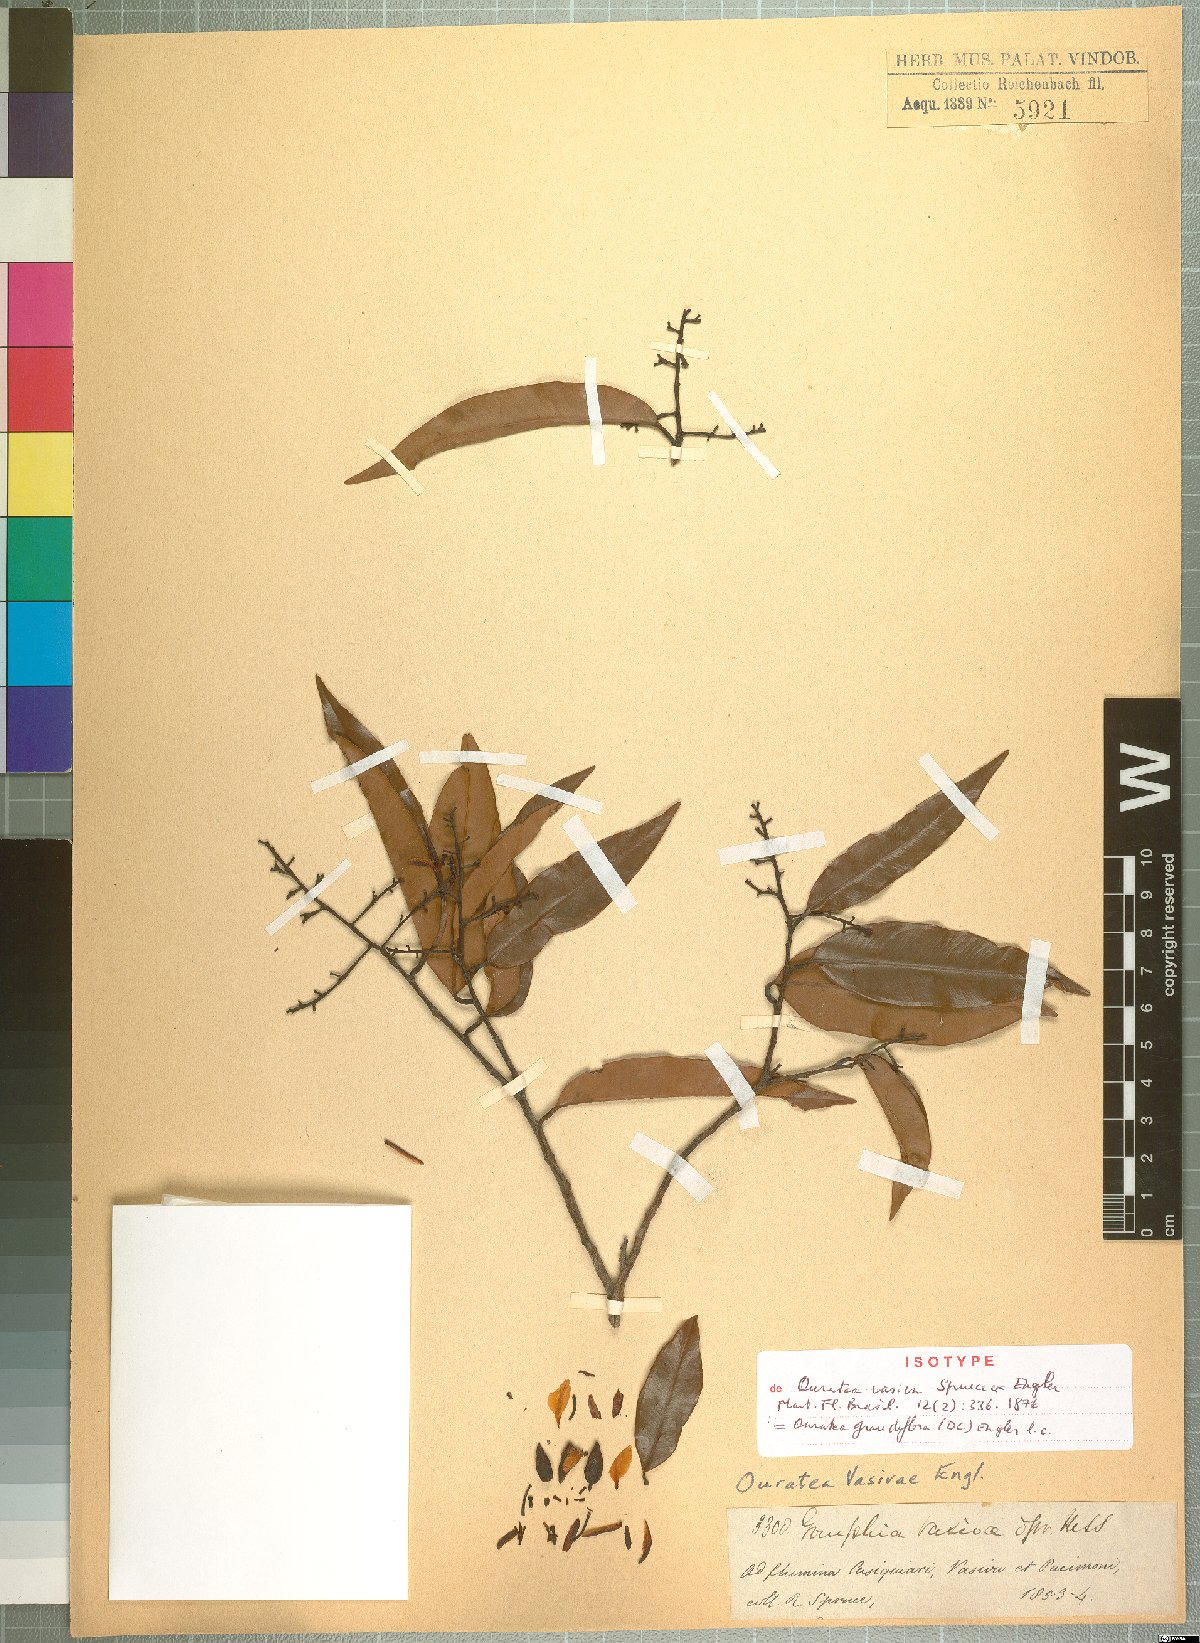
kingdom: Plantae
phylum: Tracheophyta
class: Magnoliopsida
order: Malpighiales
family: Ochnaceae
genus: Ouratea
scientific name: Ouratea grandiflora
